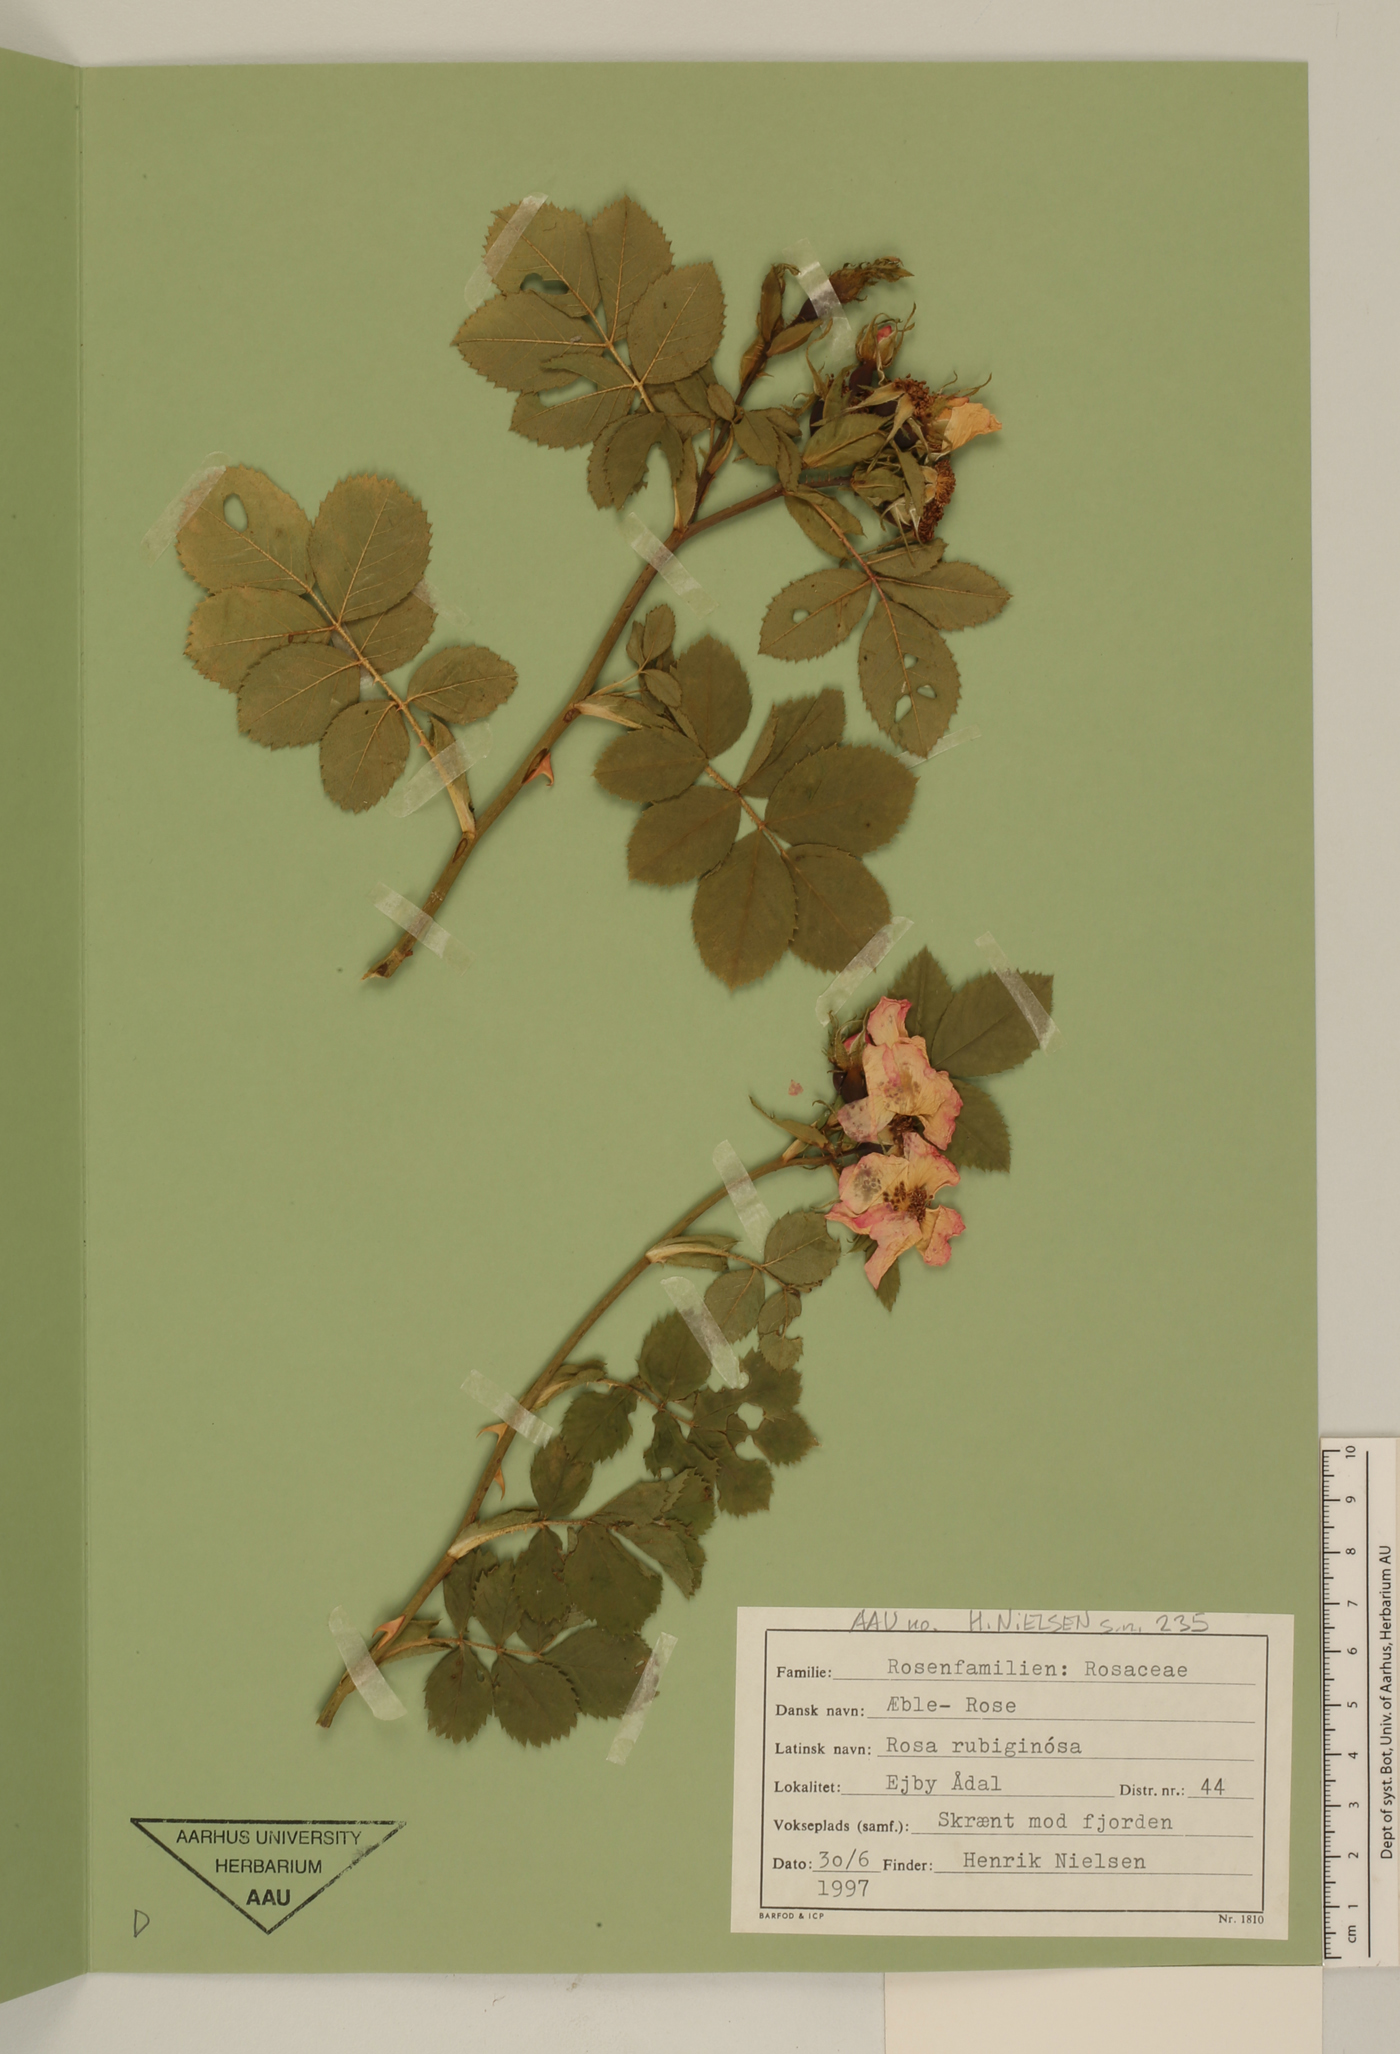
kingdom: Plantae
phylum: Tracheophyta
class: Magnoliopsida
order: Rosales
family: Rosaceae
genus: Rosa
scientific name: Rosa rubiginosa
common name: Sweet-briar
